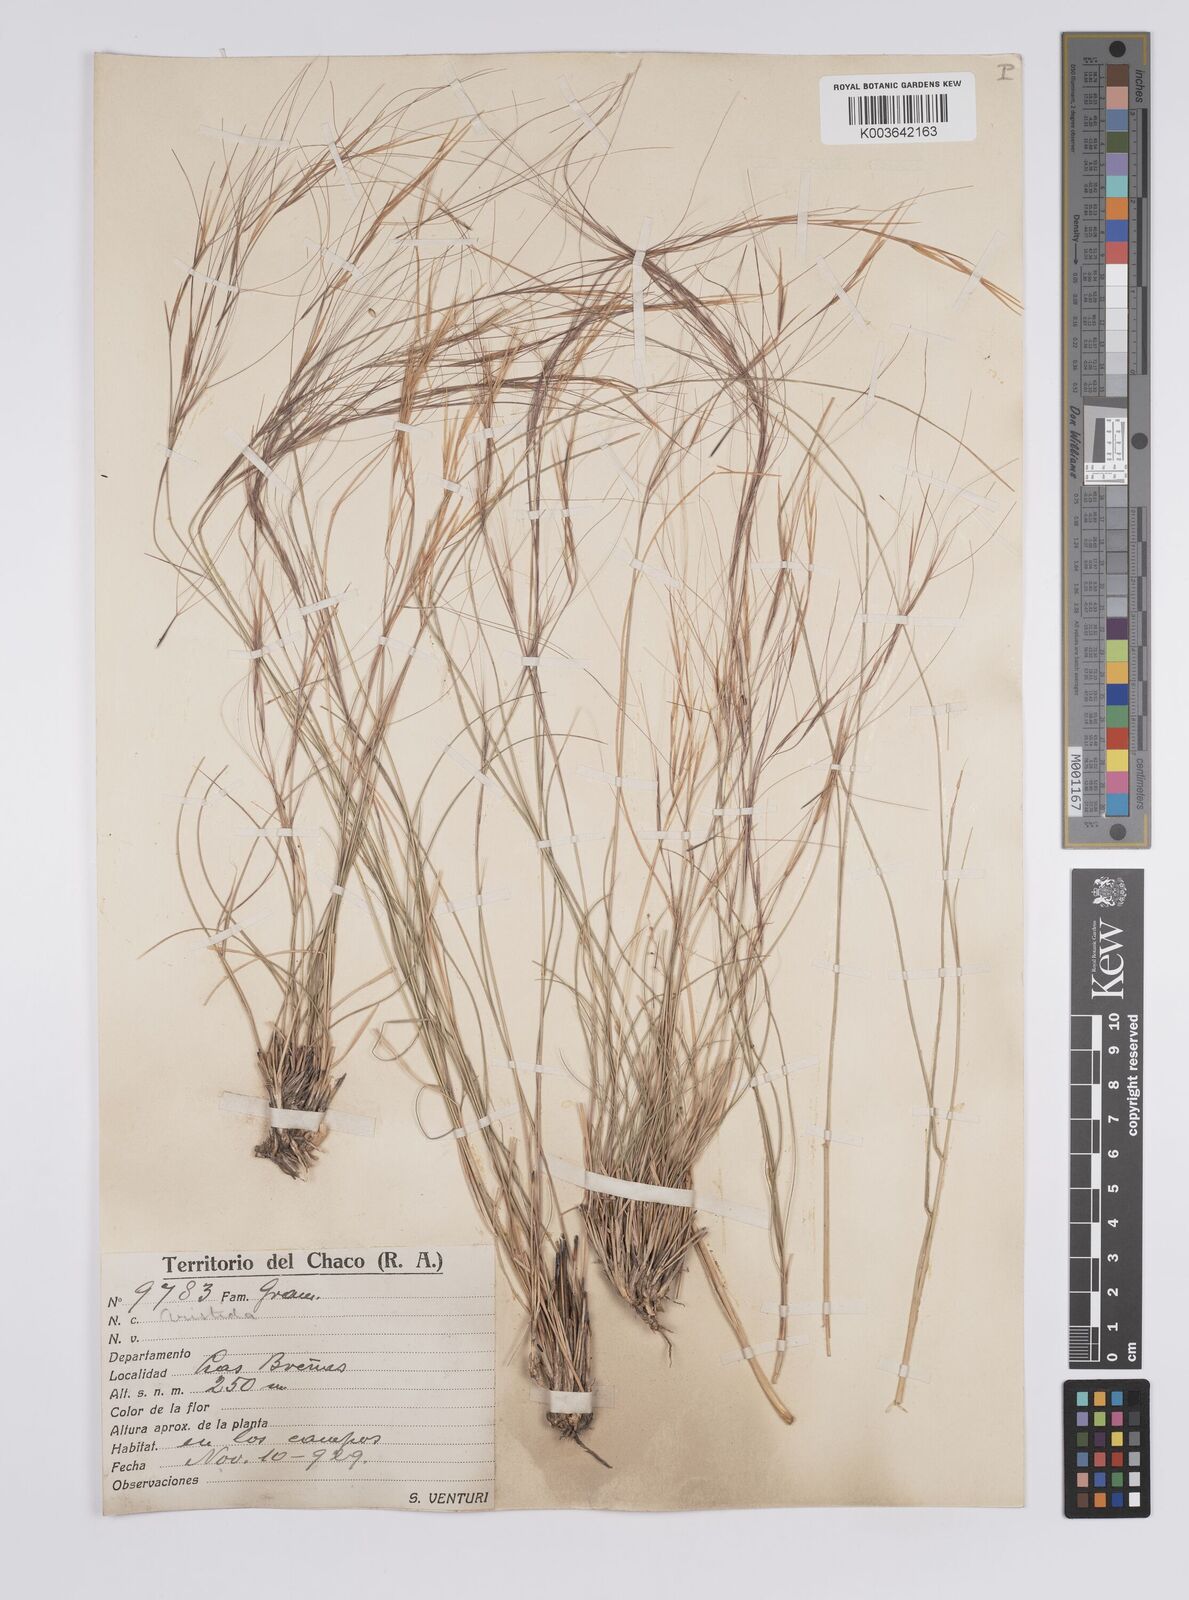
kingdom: Plantae
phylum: Tracheophyta
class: Liliopsida
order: Poales
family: Poaceae
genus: Aristida
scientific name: Aristida
